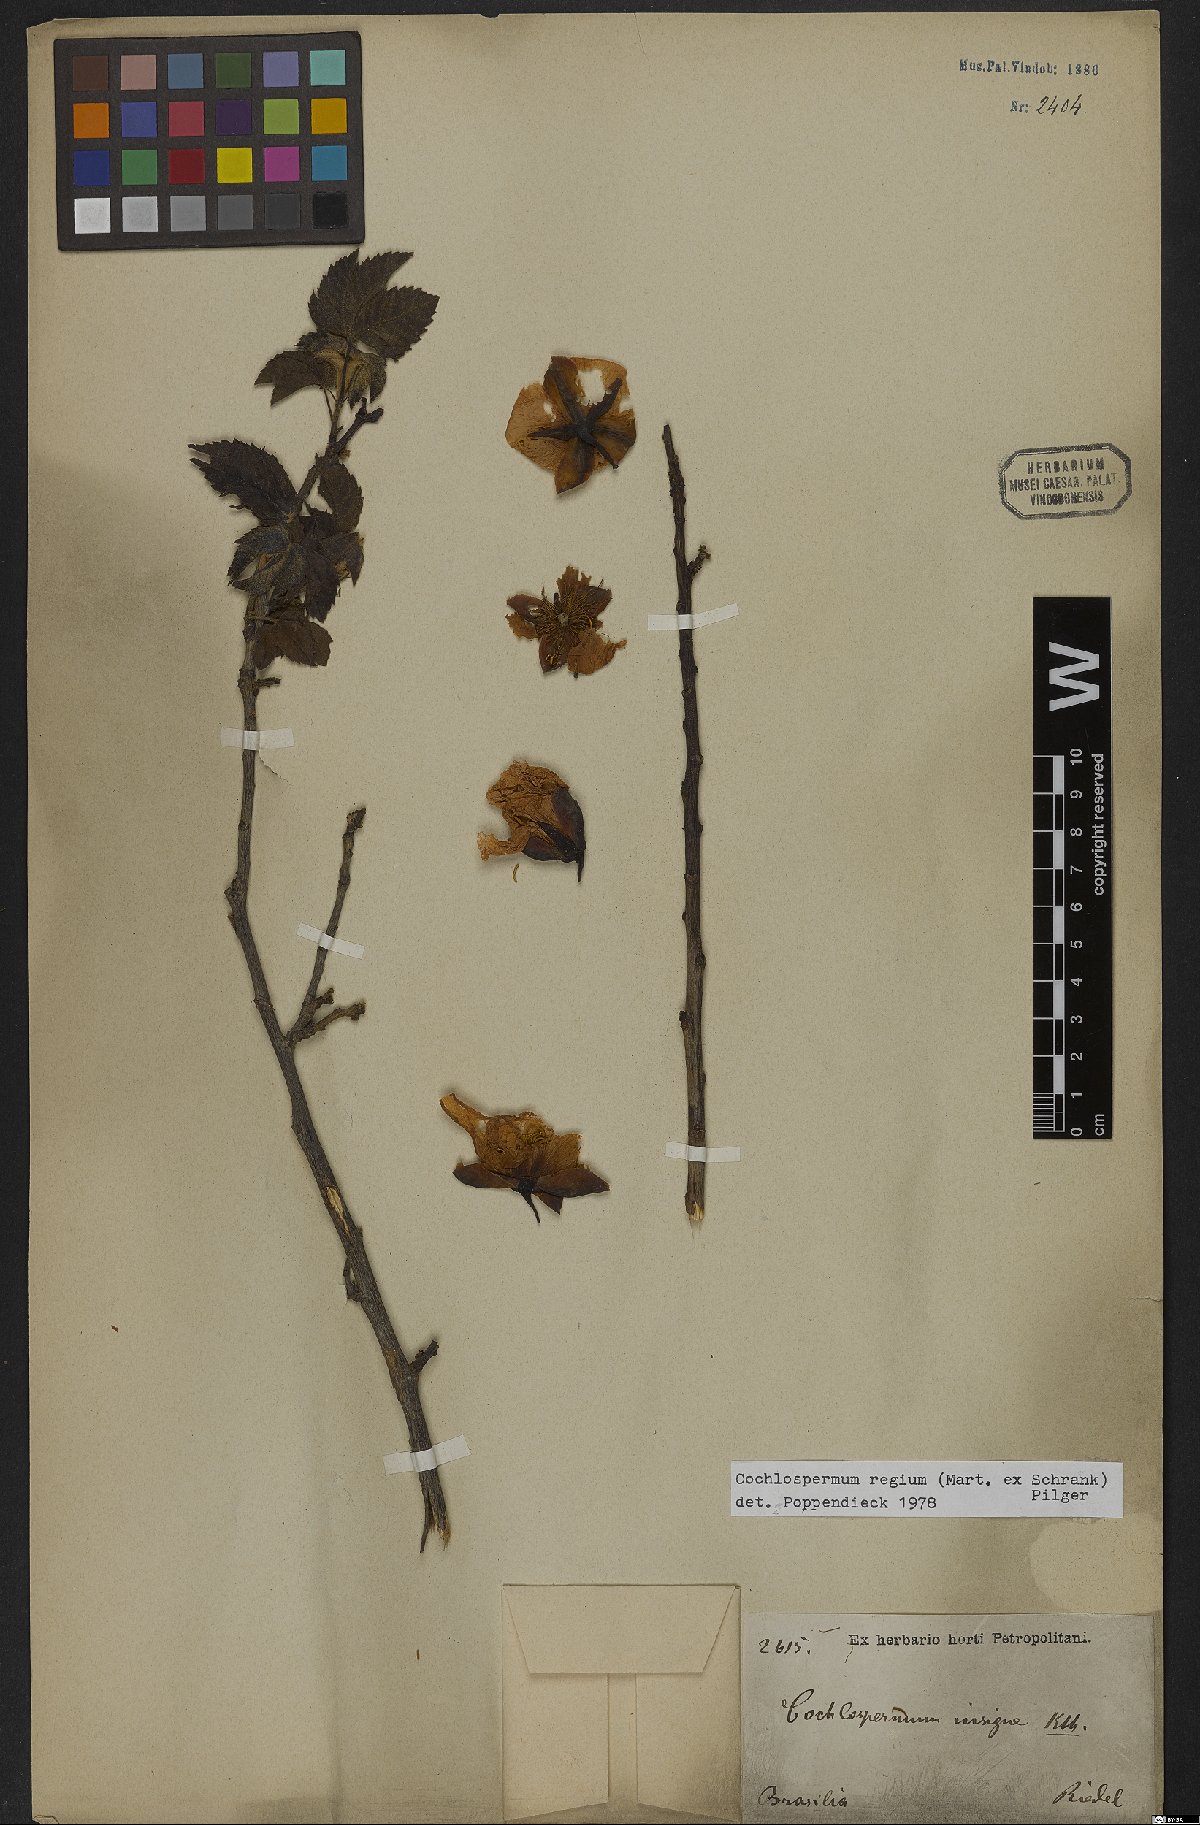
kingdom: Plantae
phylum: Tracheophyta
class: Magnoliopsida
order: Malvales
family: Cochlospermaceae
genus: Cochlospermum
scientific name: Cochlospermum regium
